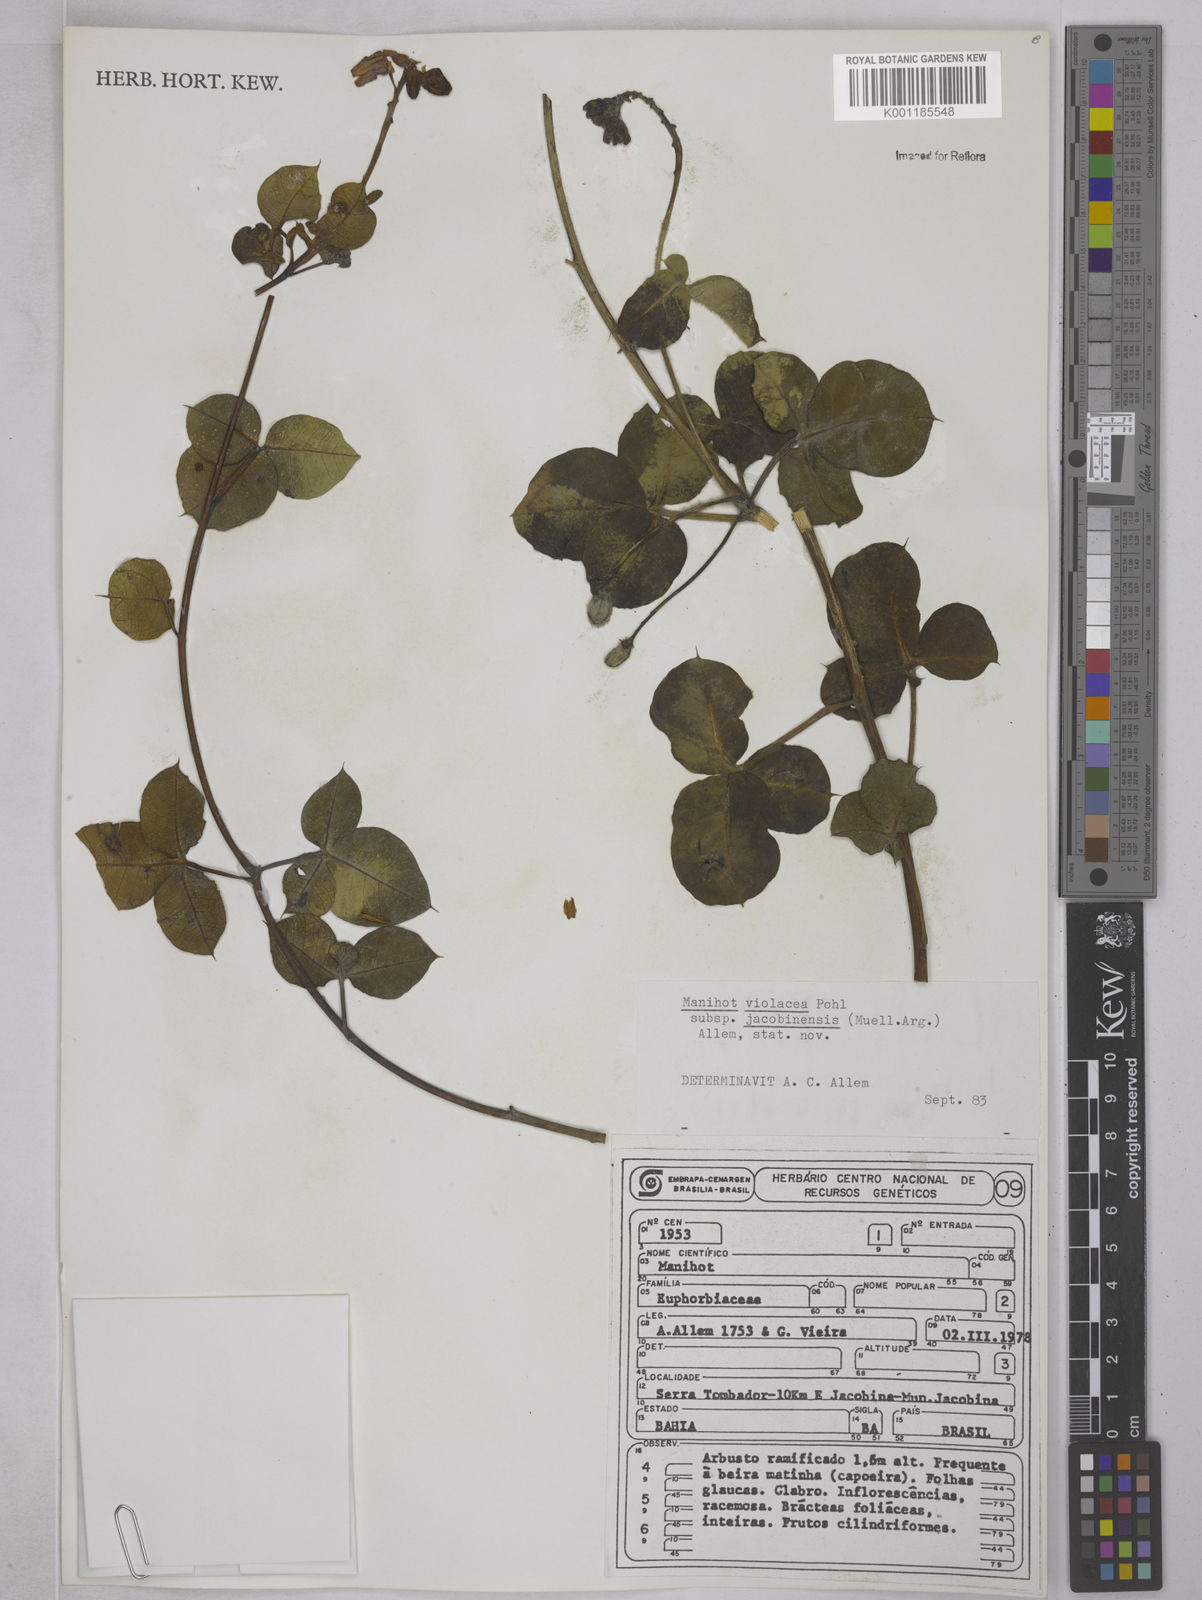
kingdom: Plantae
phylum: Tracheophyta
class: Magnoliopsida
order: Malpighiales
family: Euphorbiaceae
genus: Manihot
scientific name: Manihot
